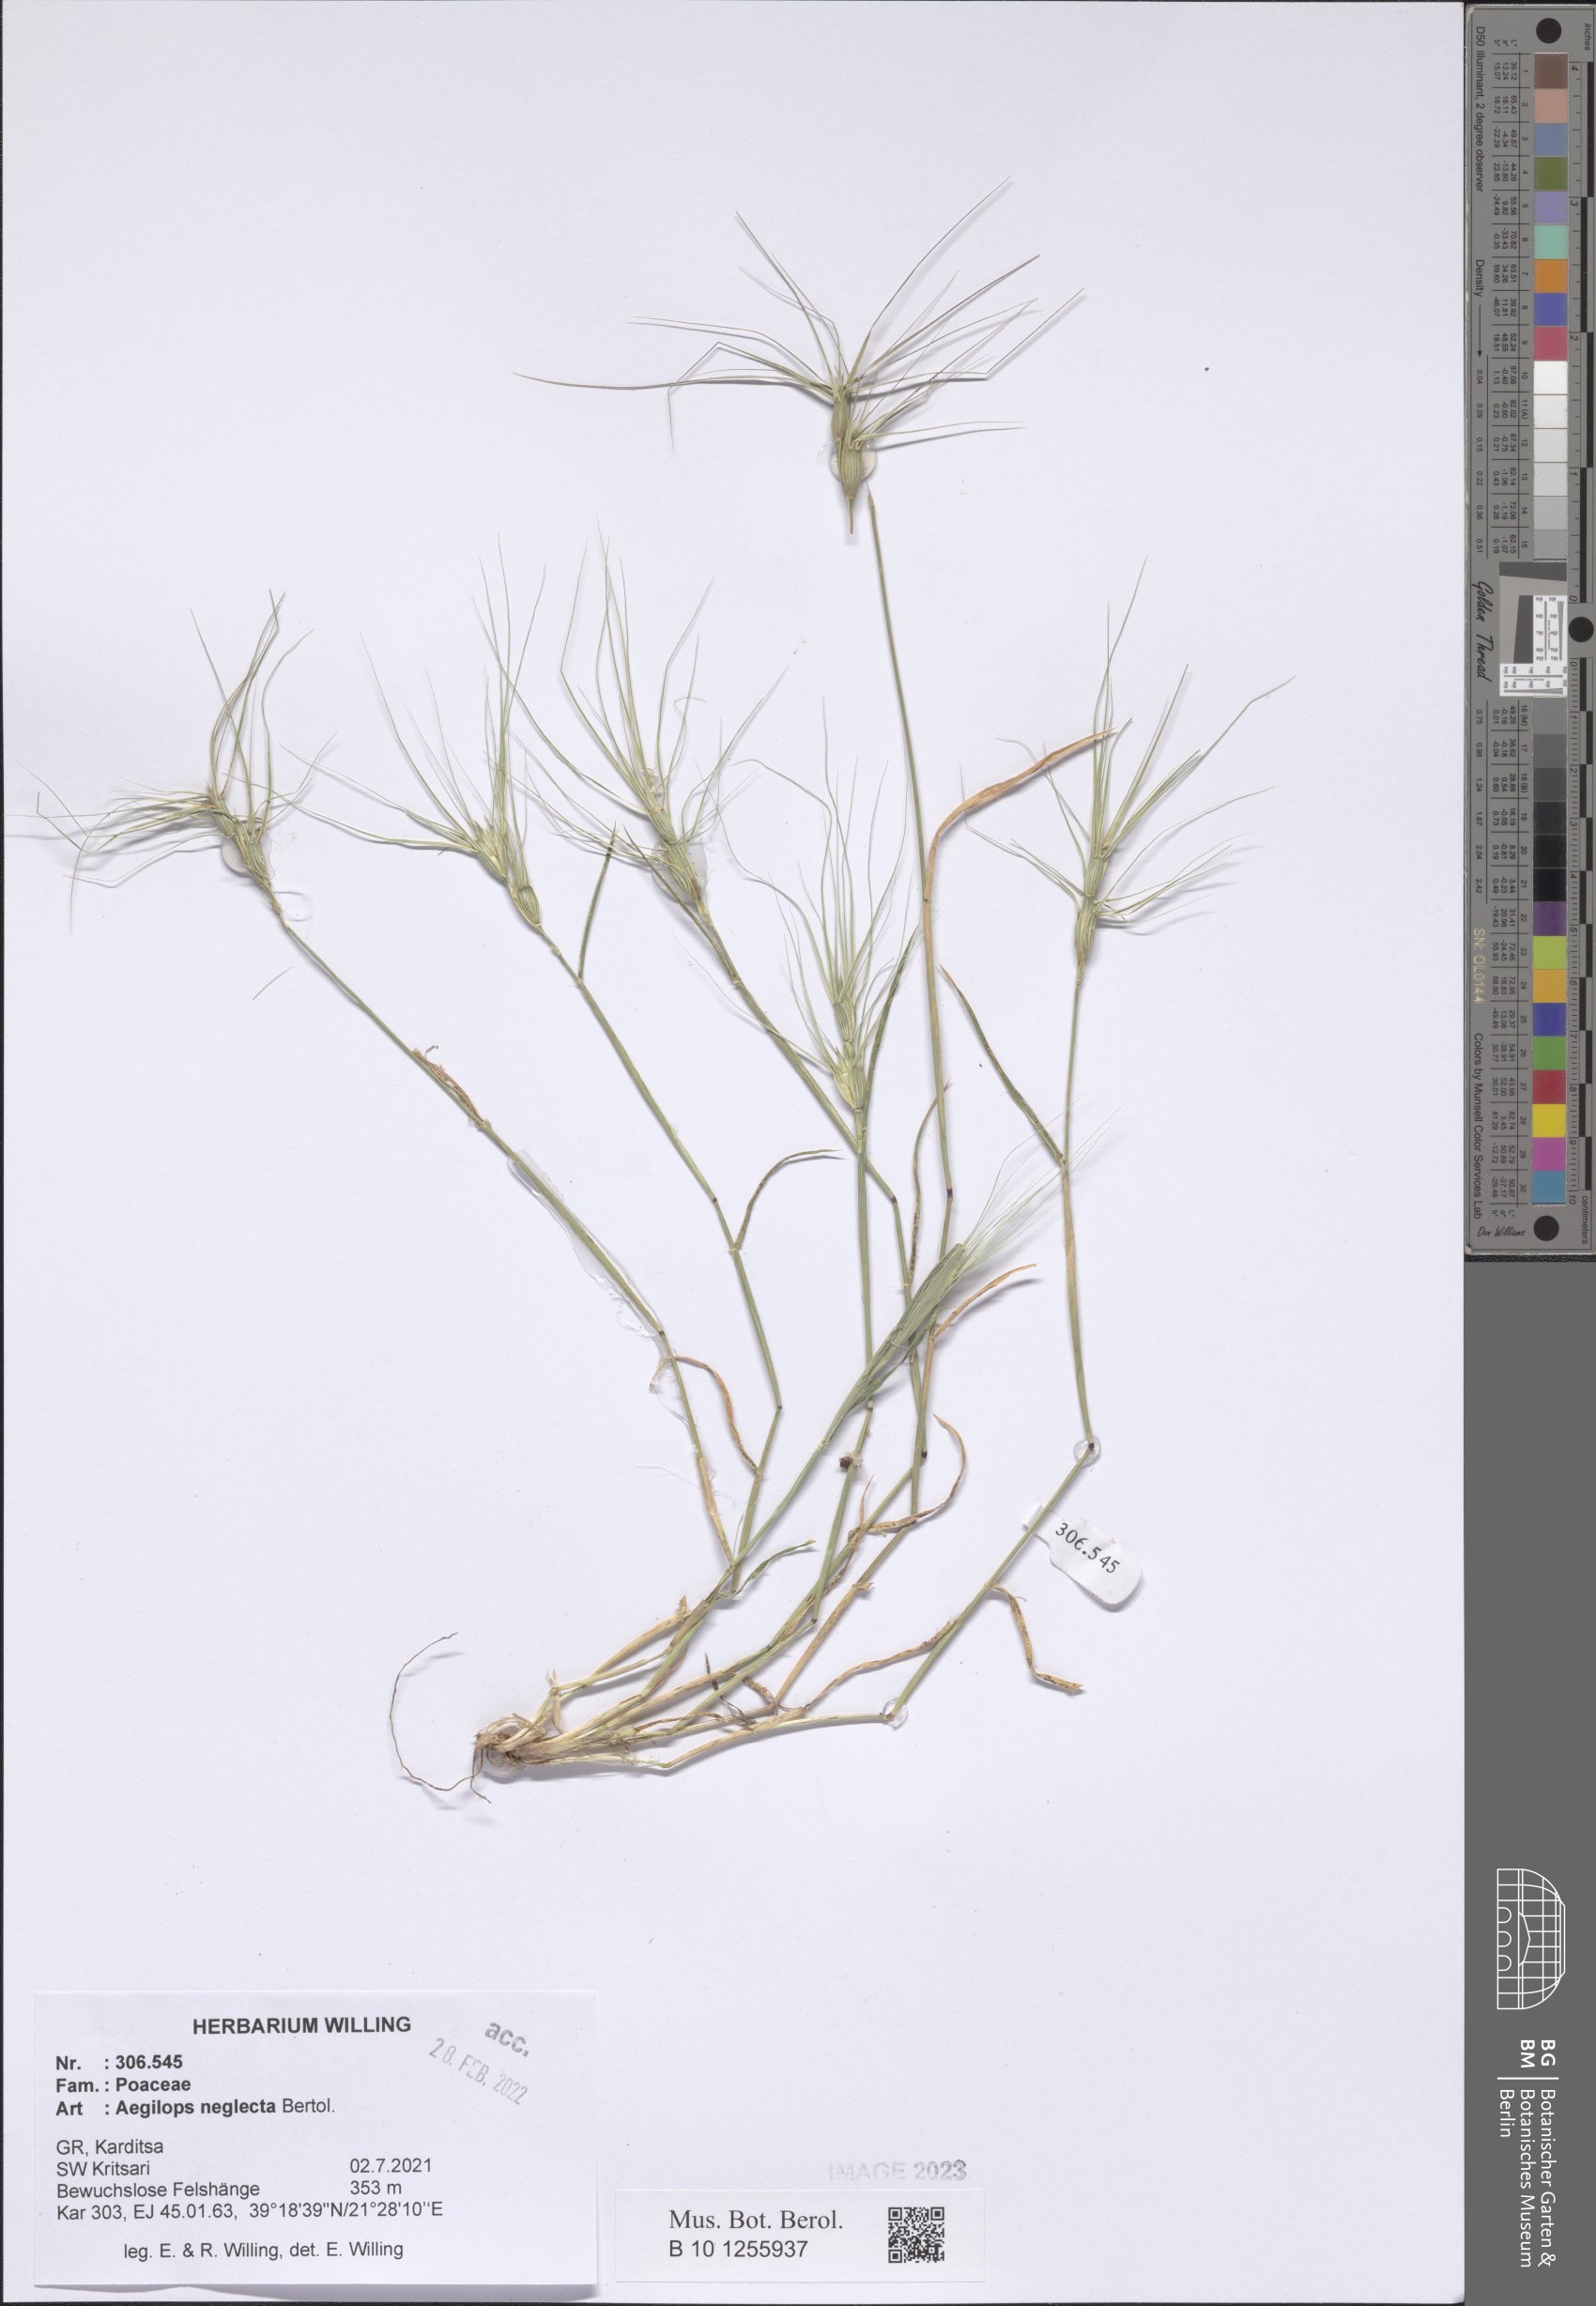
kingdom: Plantae
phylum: Tracheophyta
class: Liliopsida
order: Poales
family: Poaceae
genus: Aegilops
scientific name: Aegilops neglecta
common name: Three-awn goat grass
